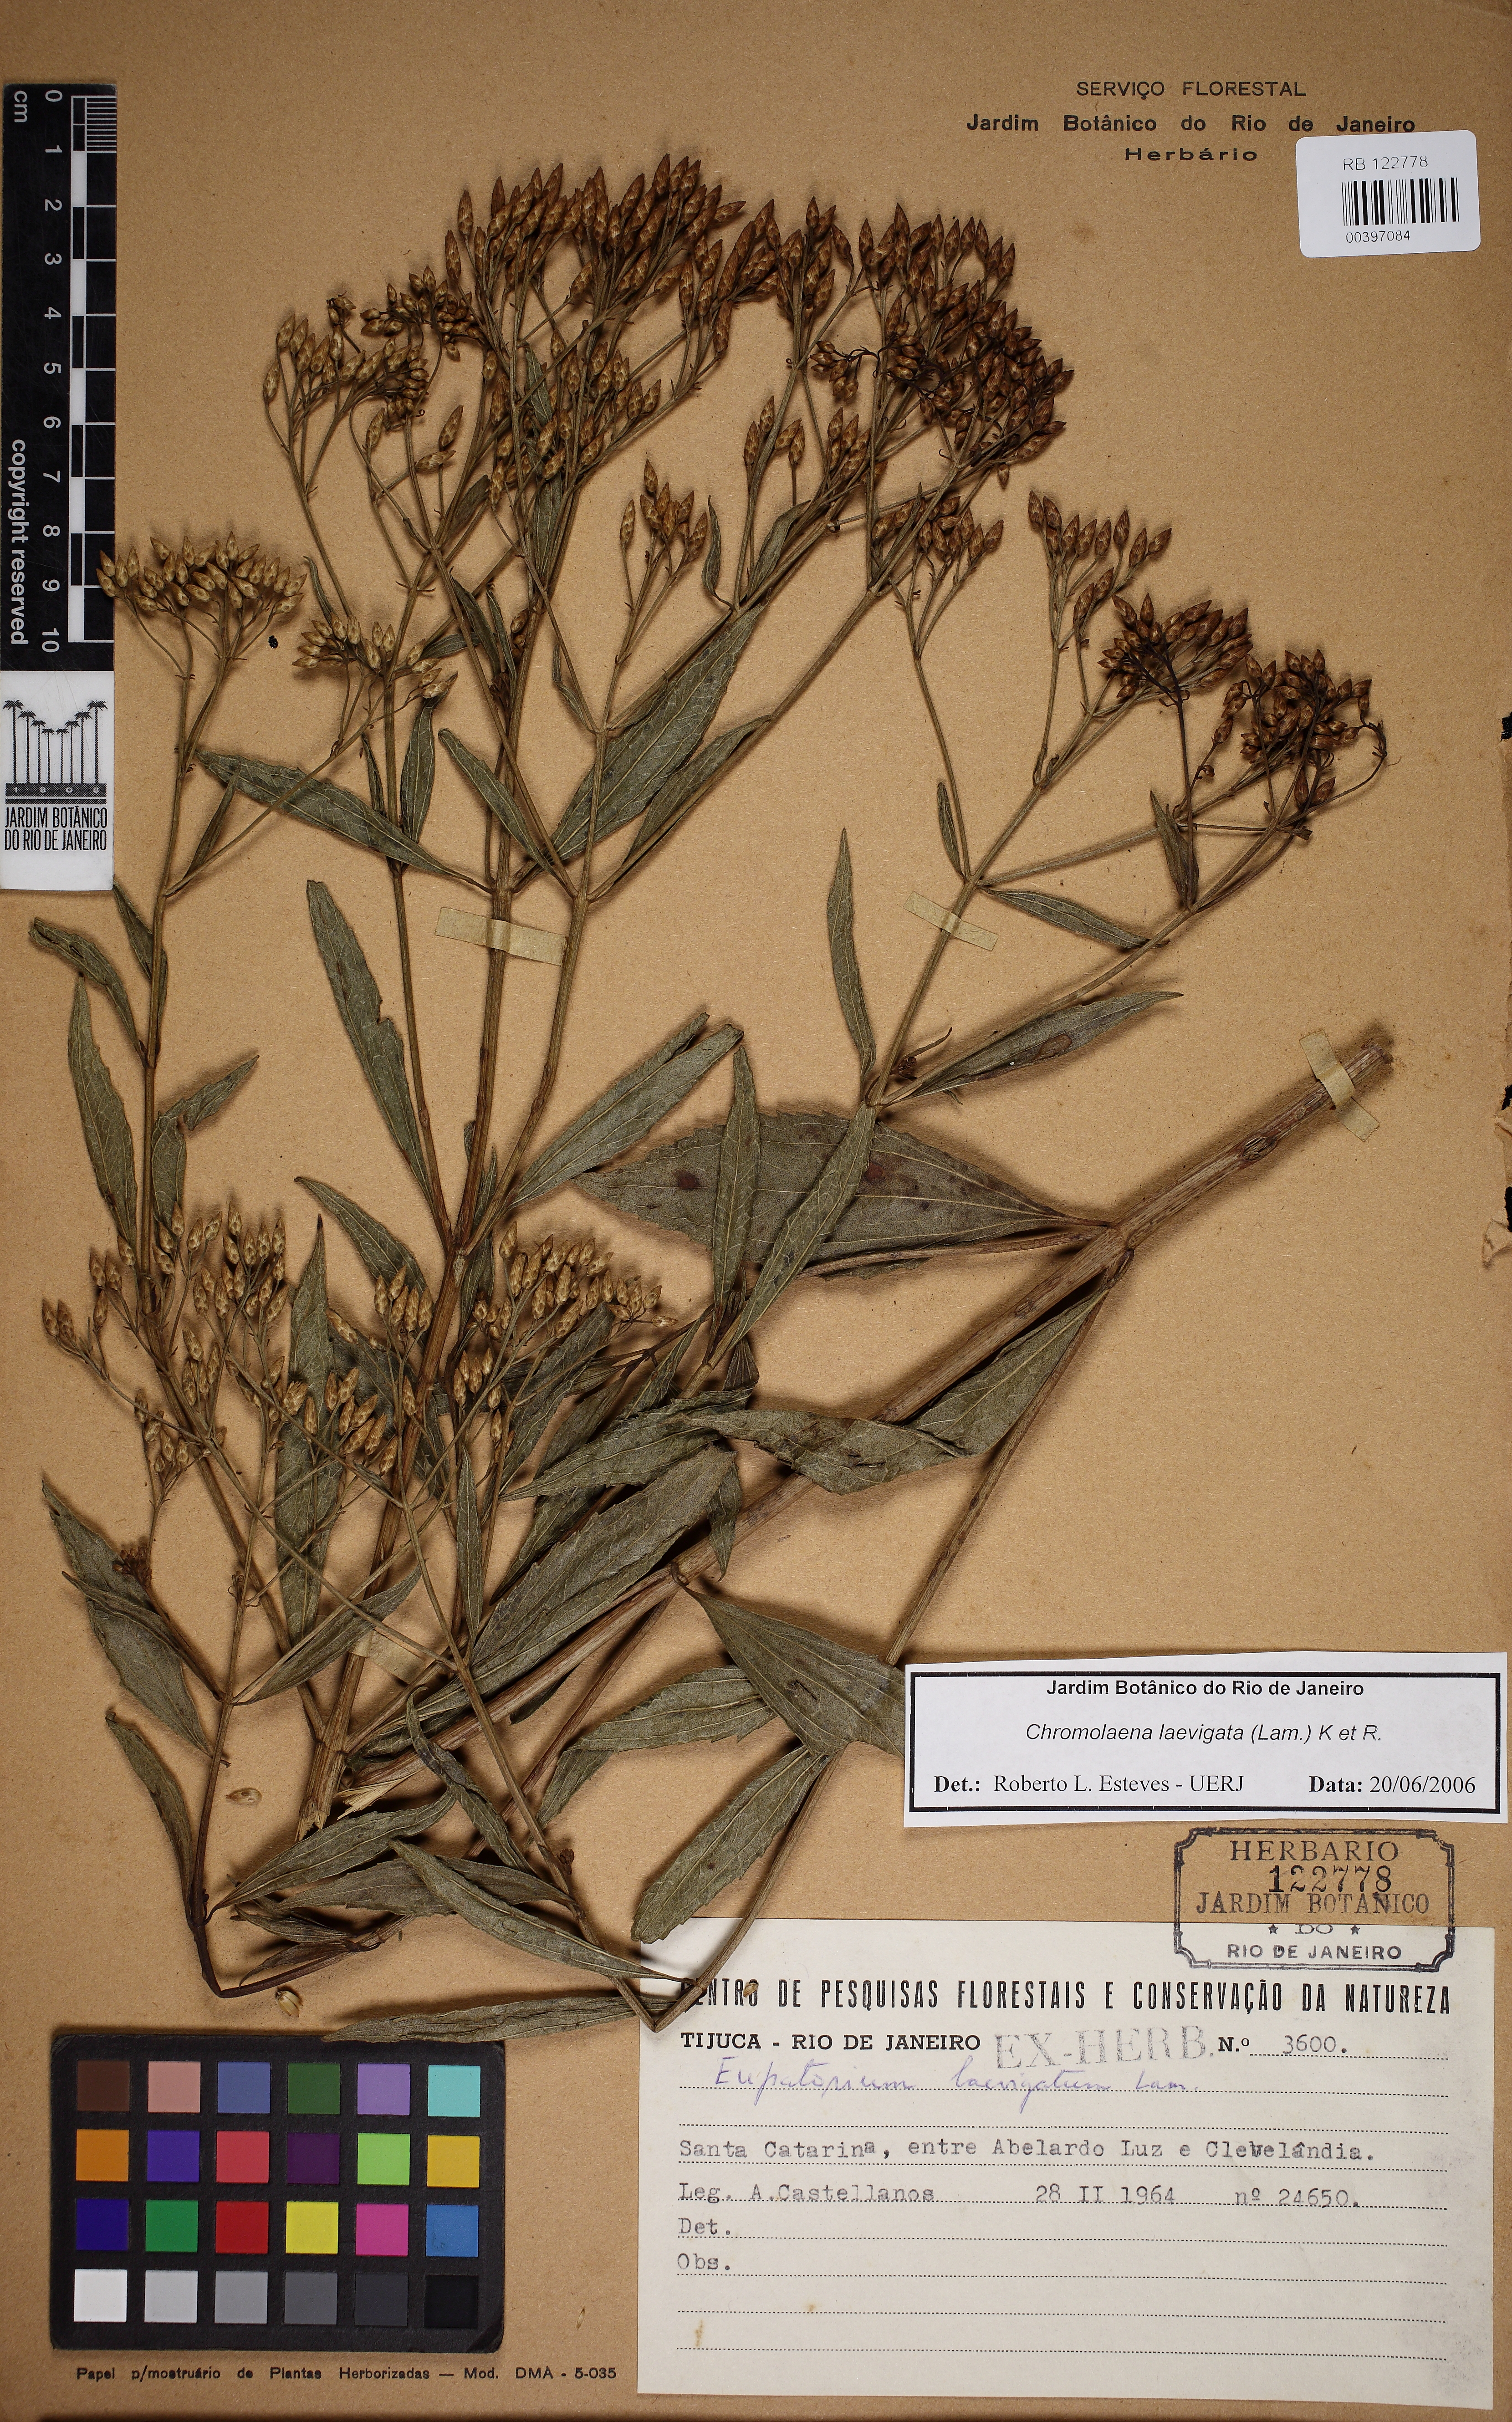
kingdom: Plantae
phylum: Tracheophyta
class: Magnoliopsida
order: Asterales
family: Asteraceae
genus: Chromolaena
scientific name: Chromolaena laevigata
